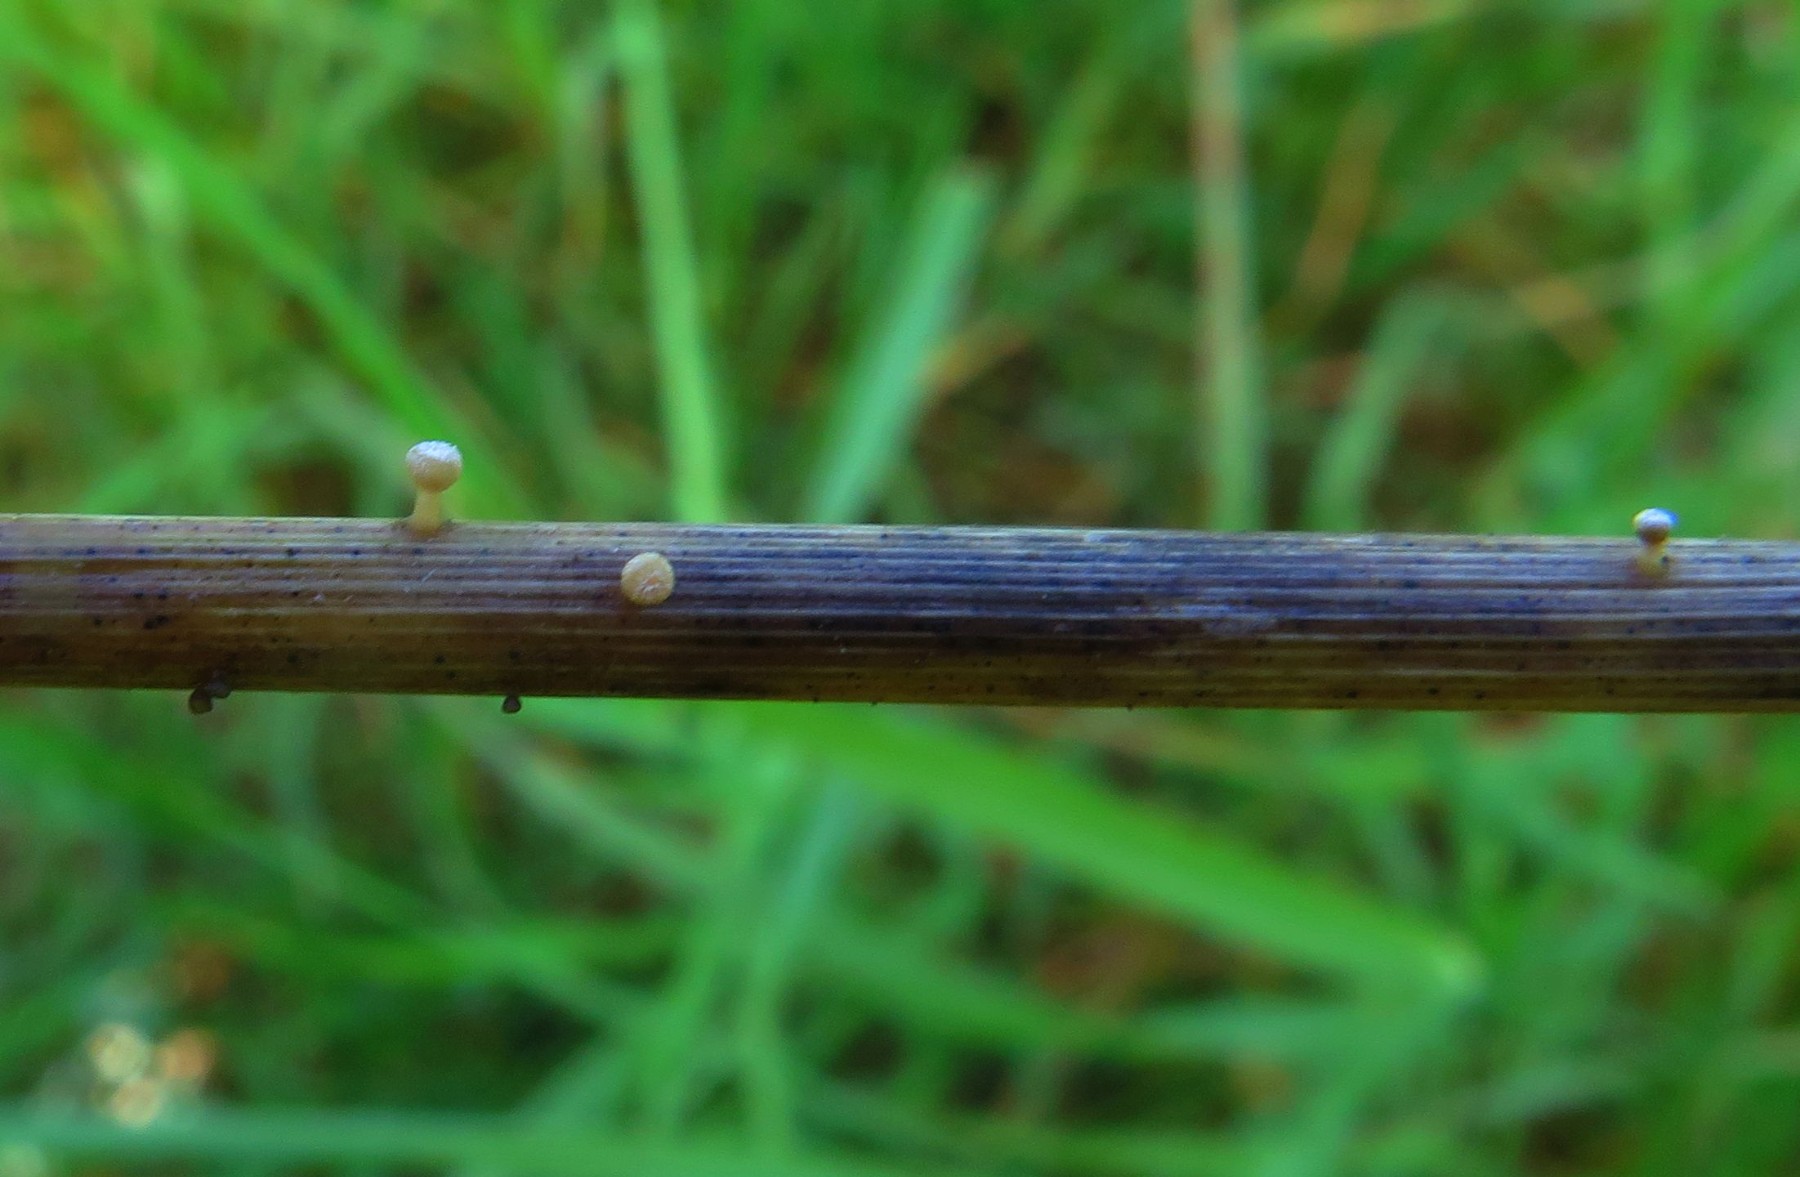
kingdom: Fungi
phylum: Ascomycota
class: Leotiomycetes
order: Helotiales
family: Helotiaceae
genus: Cyathicula
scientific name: Cyathicula
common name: stilkskive
